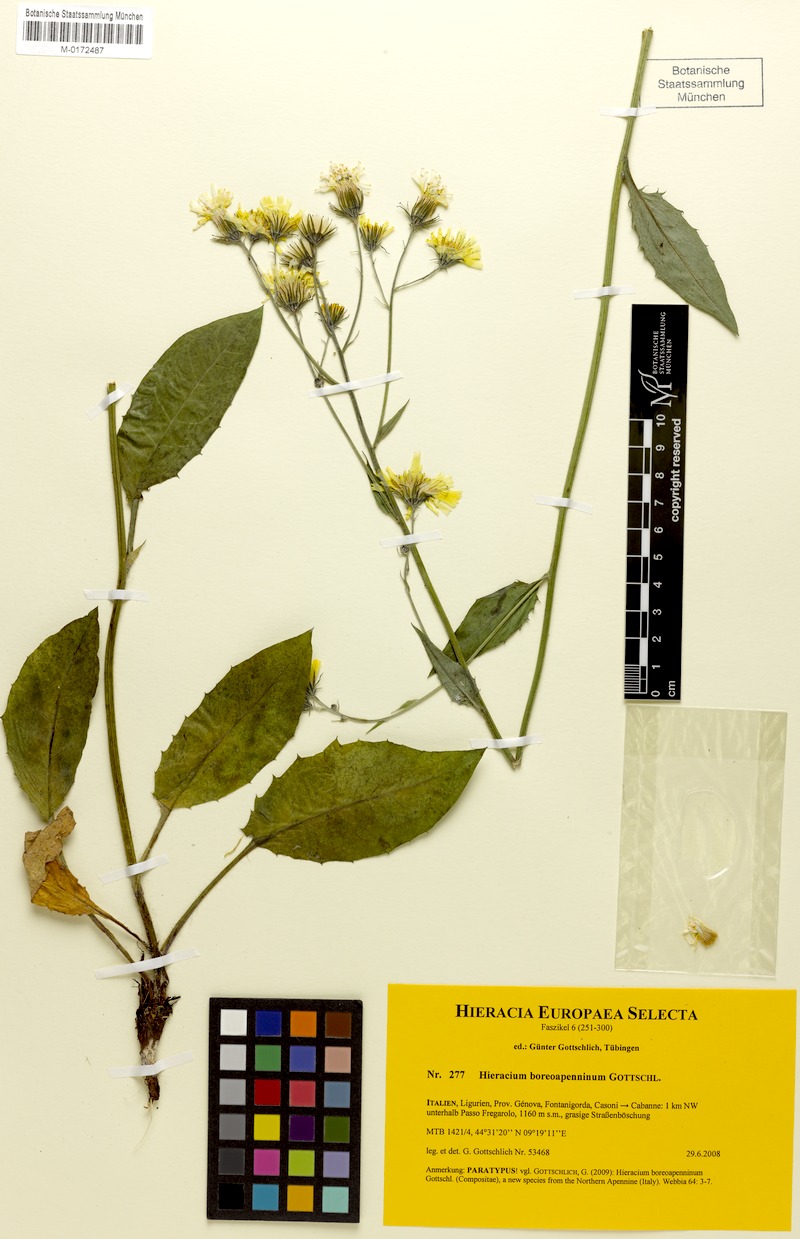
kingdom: Plantae
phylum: Tracheophyta
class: Magnoliopsida
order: Asterales
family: Asteraceae
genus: Hieracium
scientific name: Hieracium boreoapenninum
